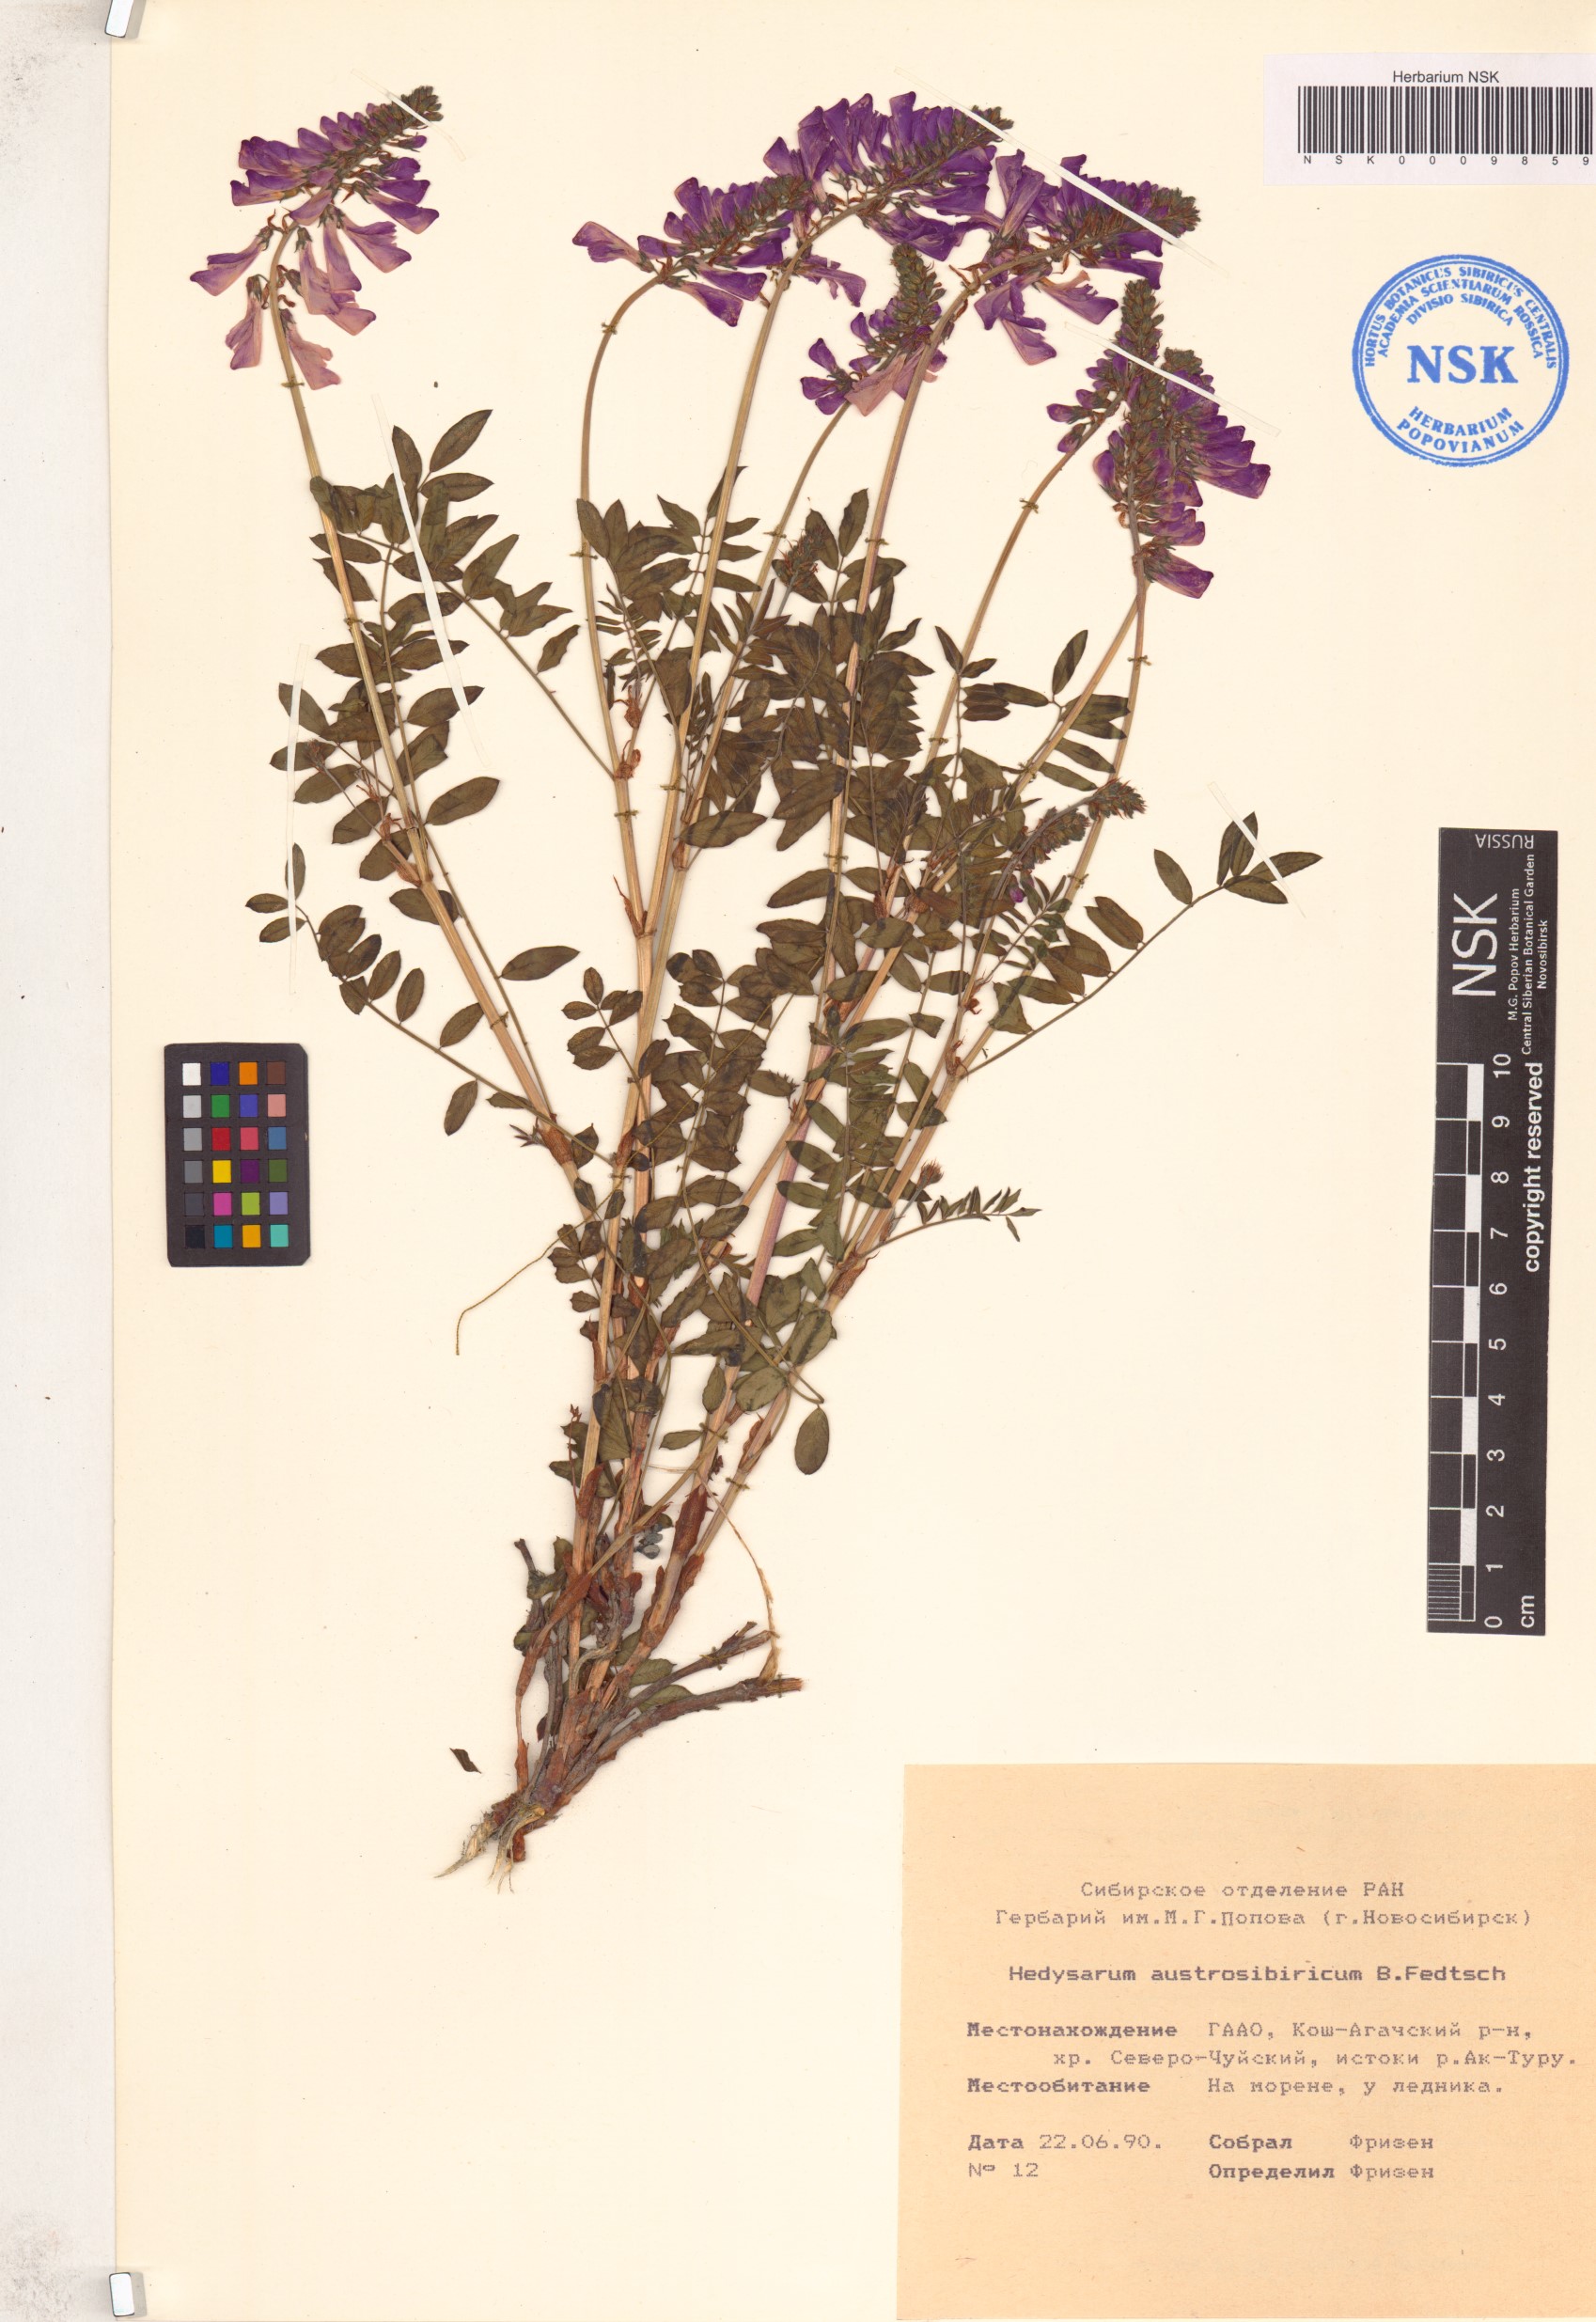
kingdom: Plantae
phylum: Tracheophyta
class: Magnoliopsida
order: Fabales
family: Fabaceae
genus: Hedysarum
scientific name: Hedysarum neglectum
